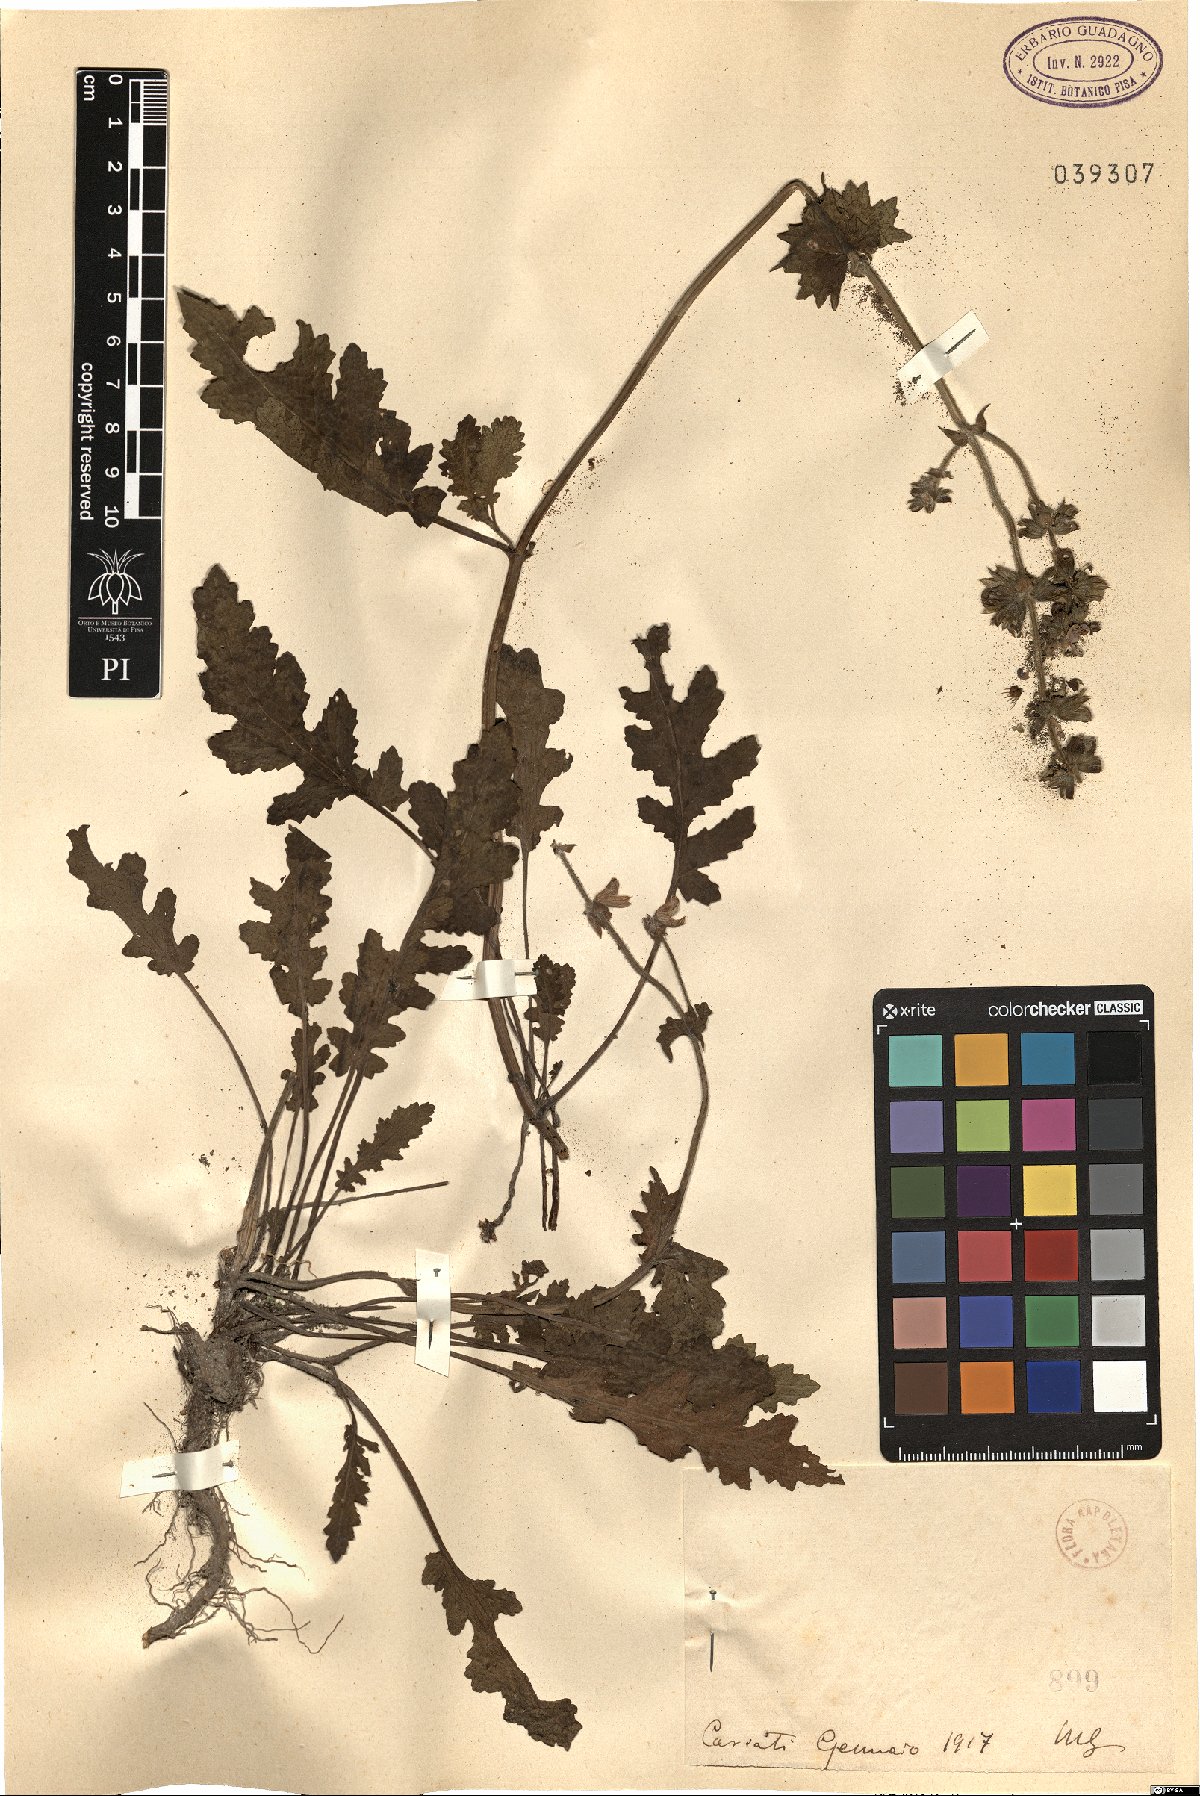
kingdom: Plantae
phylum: Tracheophyta
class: Magnoliopsida
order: Lamiales
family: Lamiaceae
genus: Salvia
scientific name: Salvia
